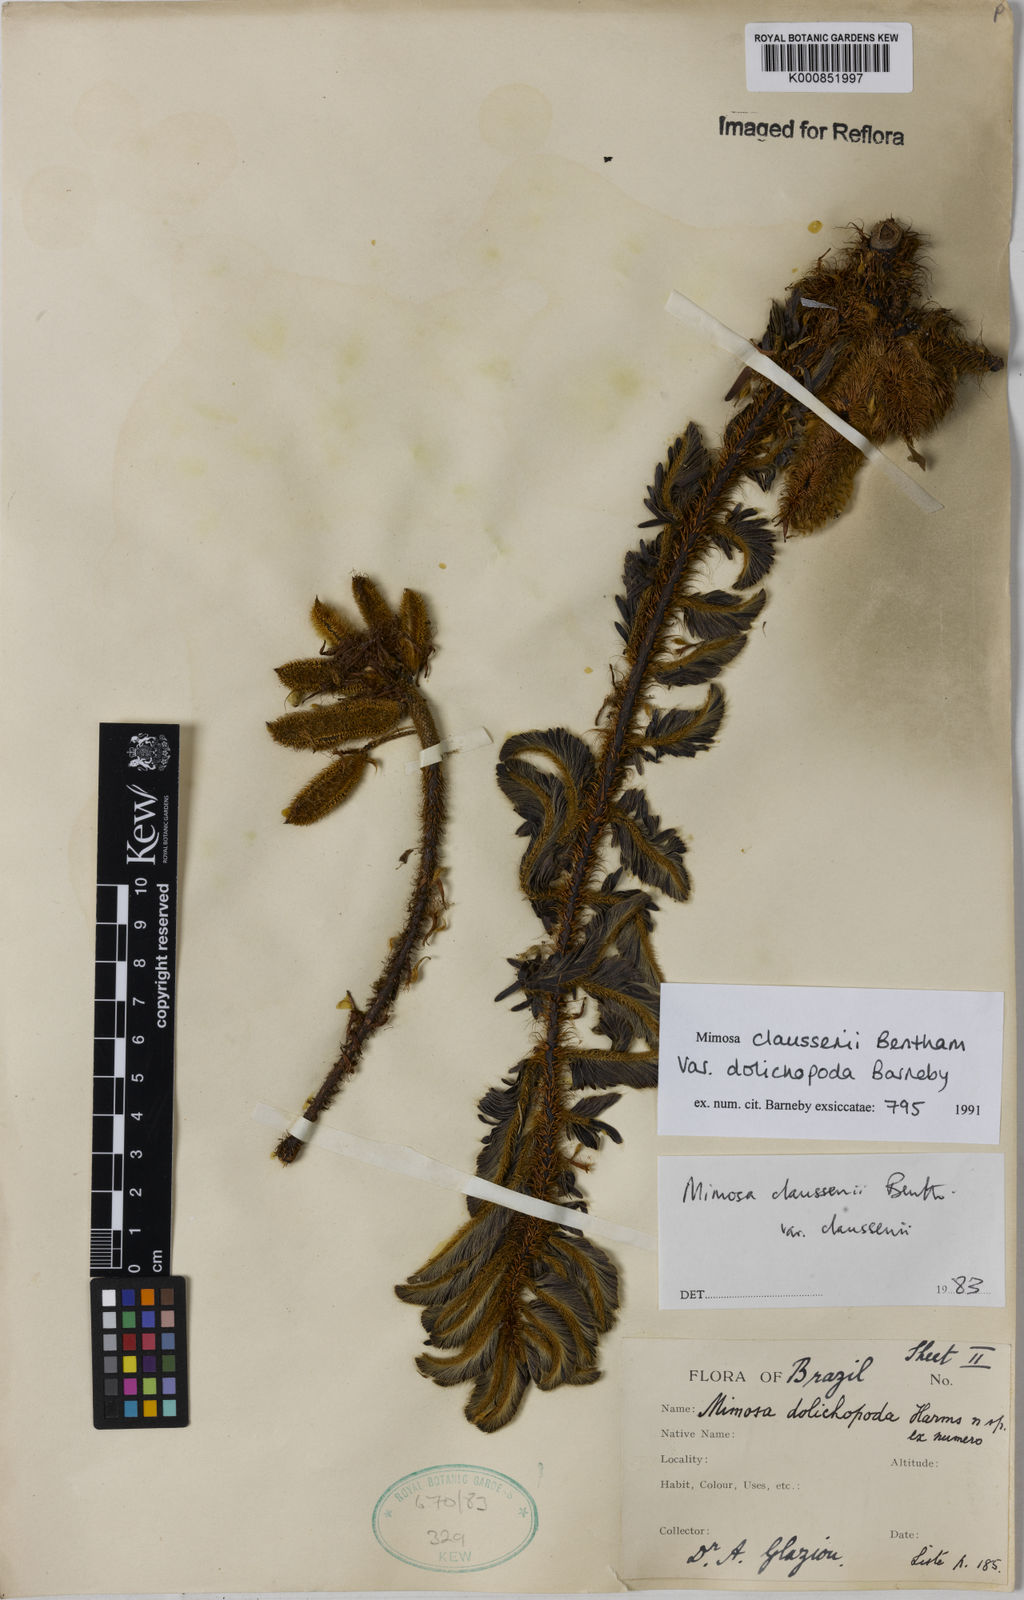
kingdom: Plantae
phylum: Tracheophyta
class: Magnoliopsida
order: Fabales
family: Fabaceae
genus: Mimosa
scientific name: Mimosa claussenii
